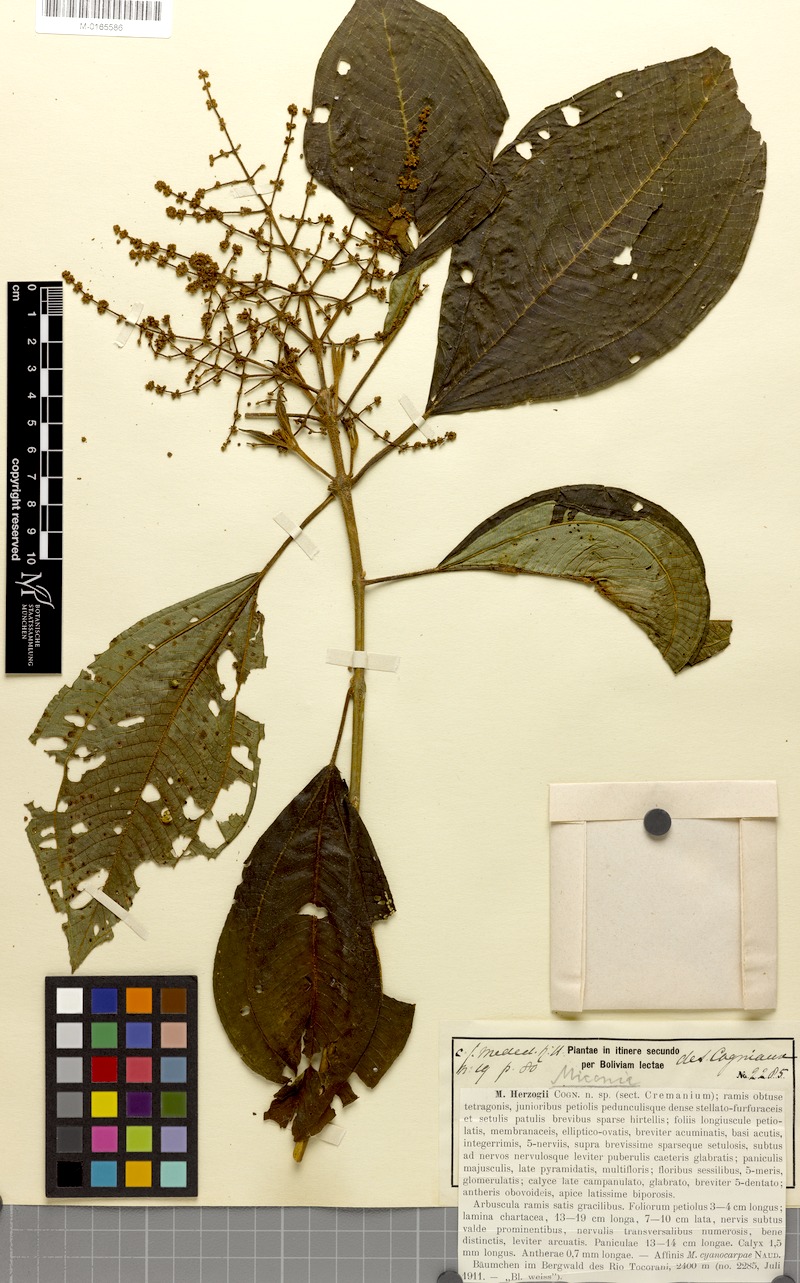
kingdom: Plantae
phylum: Tracheophyta
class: Magnoliopsida
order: Myrtales
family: Melastomataceae
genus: Miconia
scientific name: Miconia herzogii
